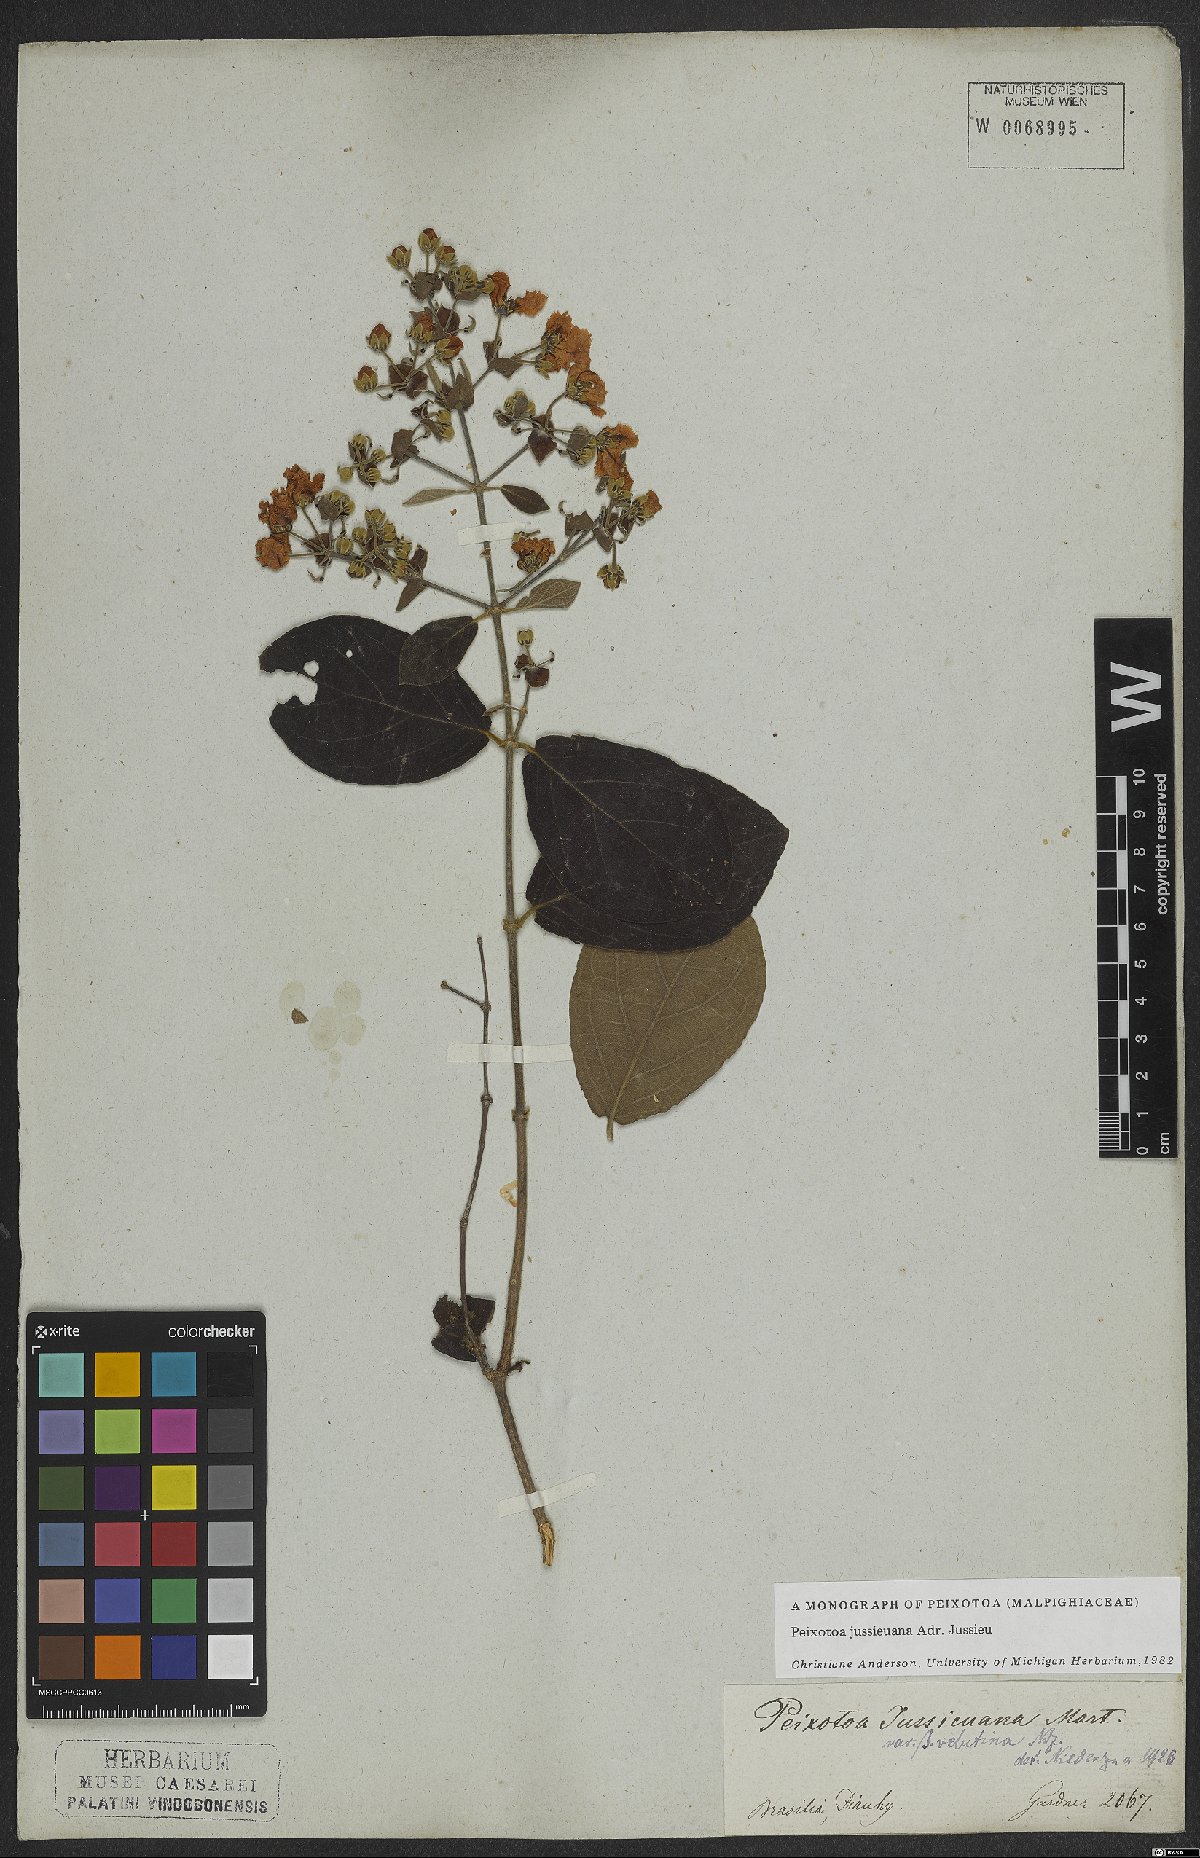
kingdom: Plantae
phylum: Tracheophyta
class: Magnoliopsida
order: Malpighiales
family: Malpighiaceae
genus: Peixotoa
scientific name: Peixotoa jussieuana
